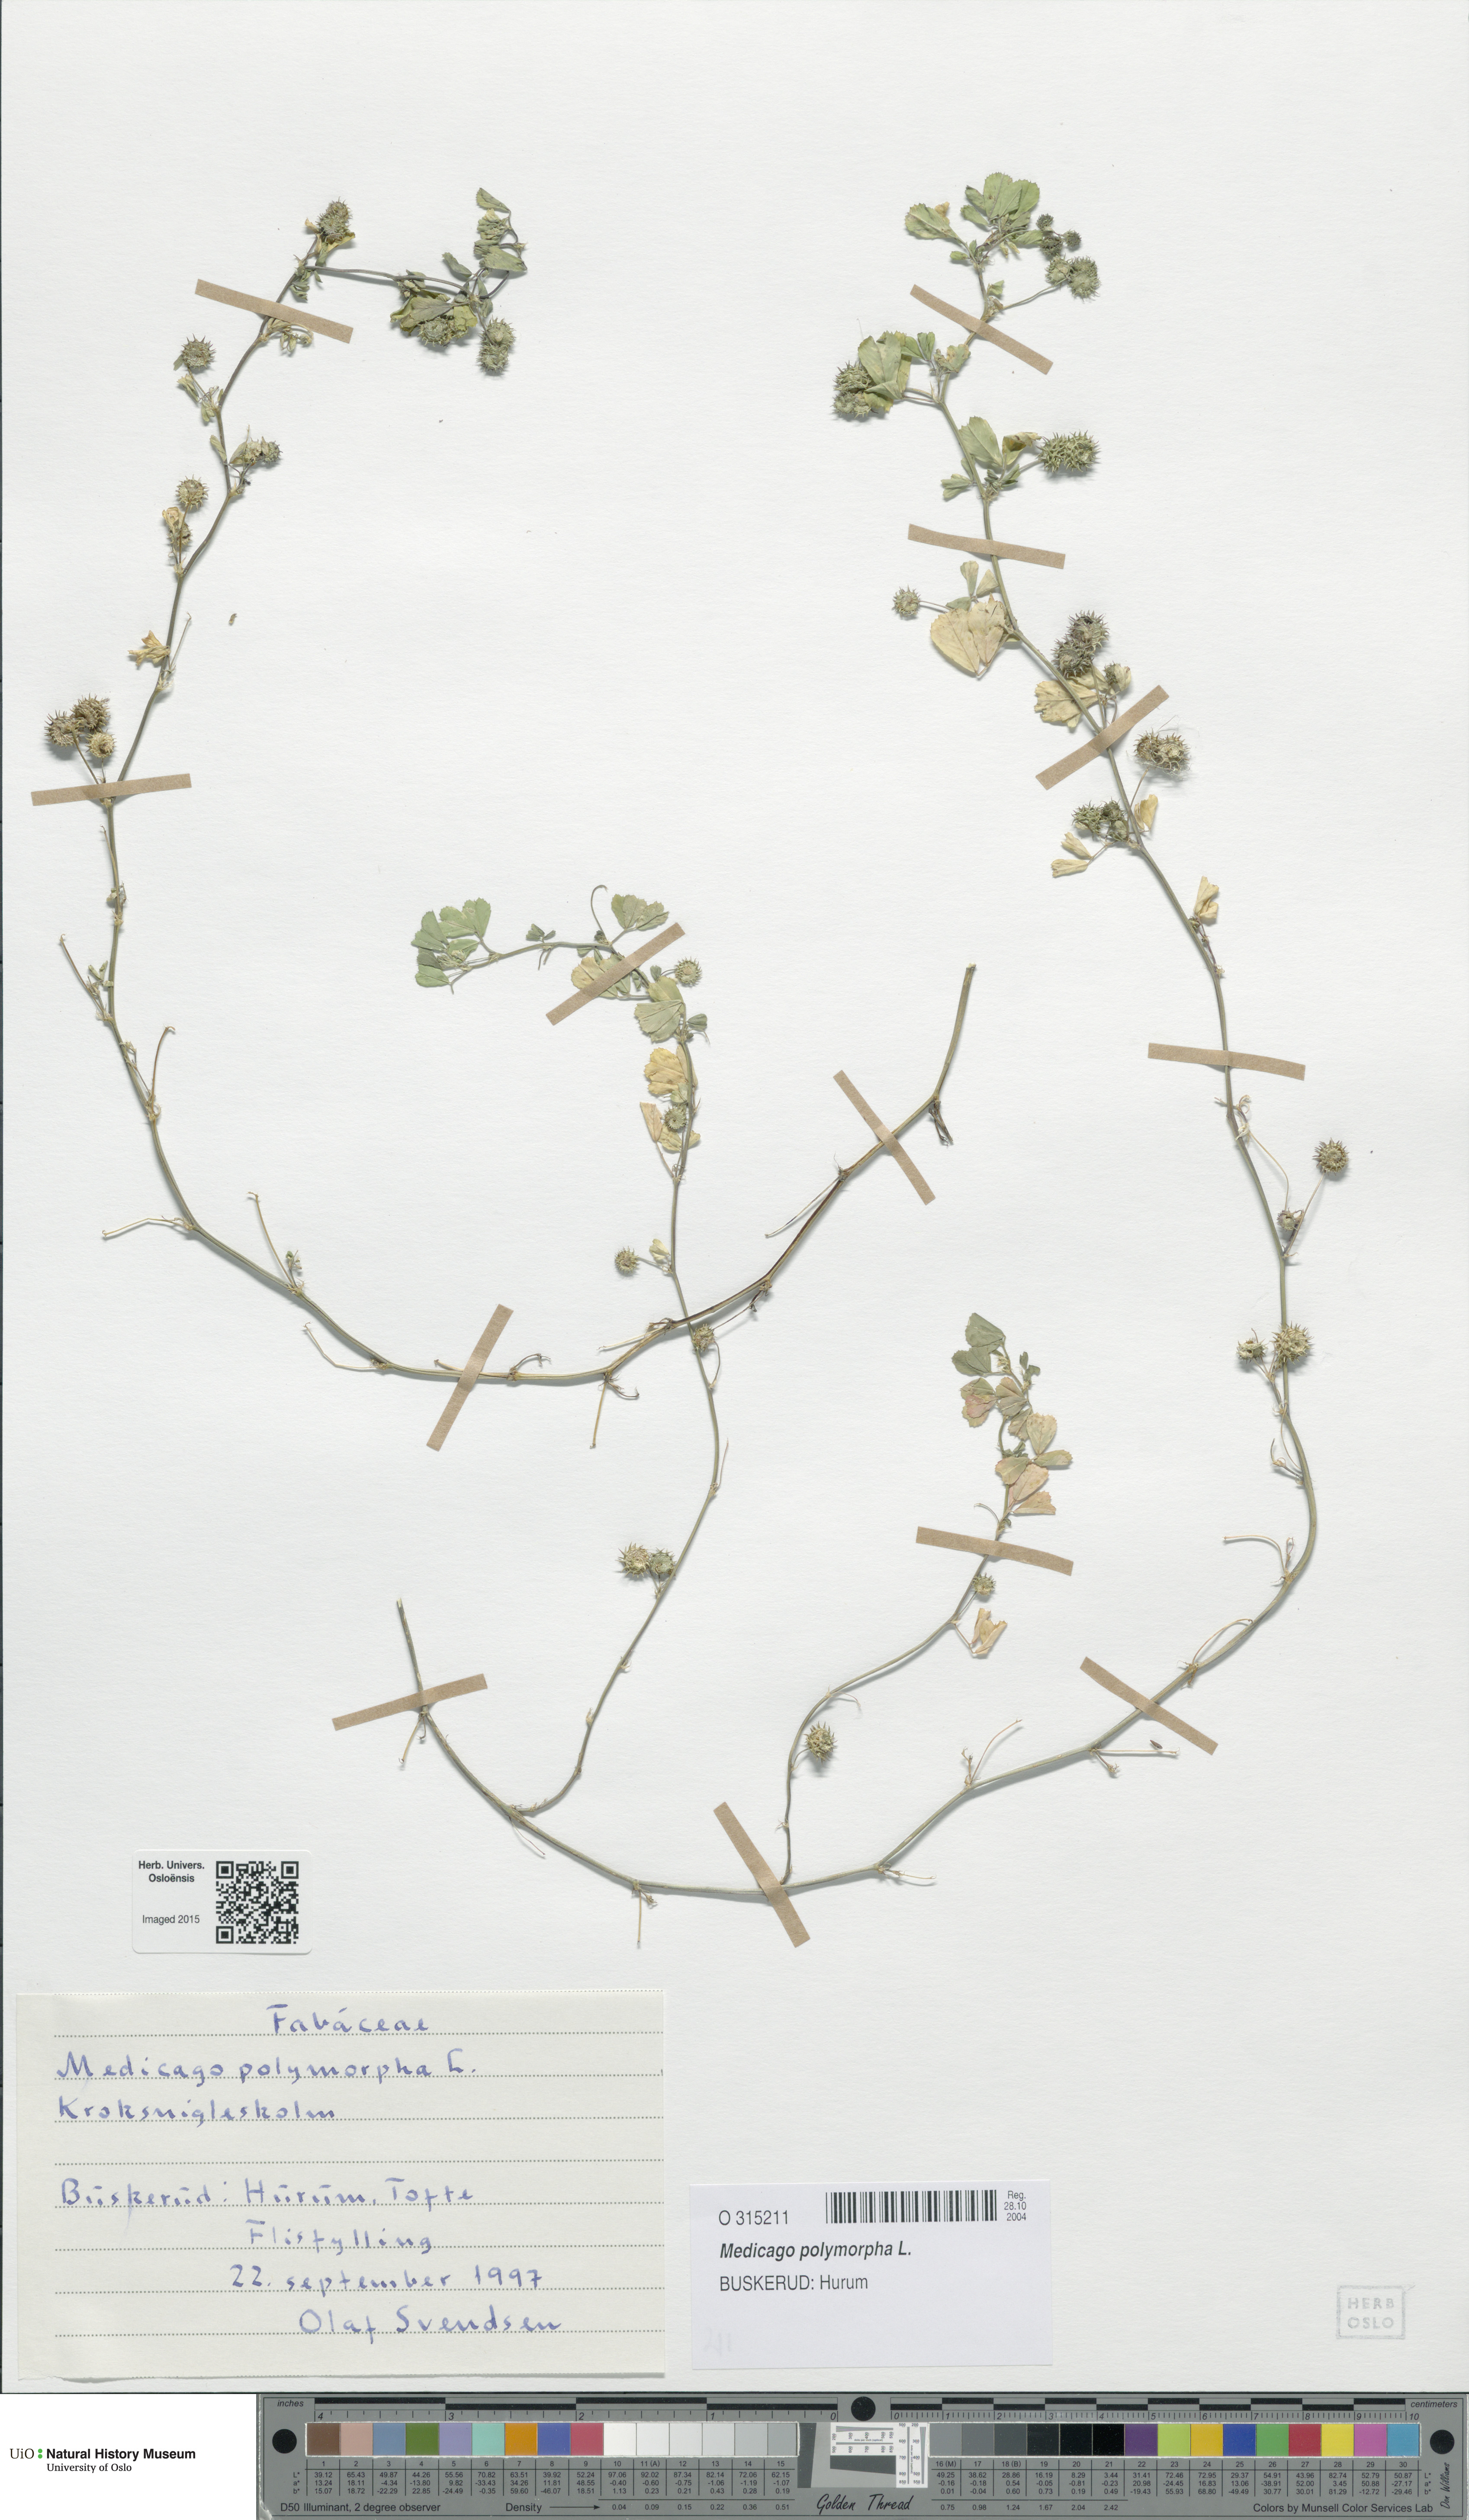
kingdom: Plantae
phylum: Tracheophyta
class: Magnoliopsida
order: Fabales
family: Fabaceae
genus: Medicago
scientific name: Medicago polymorpha
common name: Burclover
